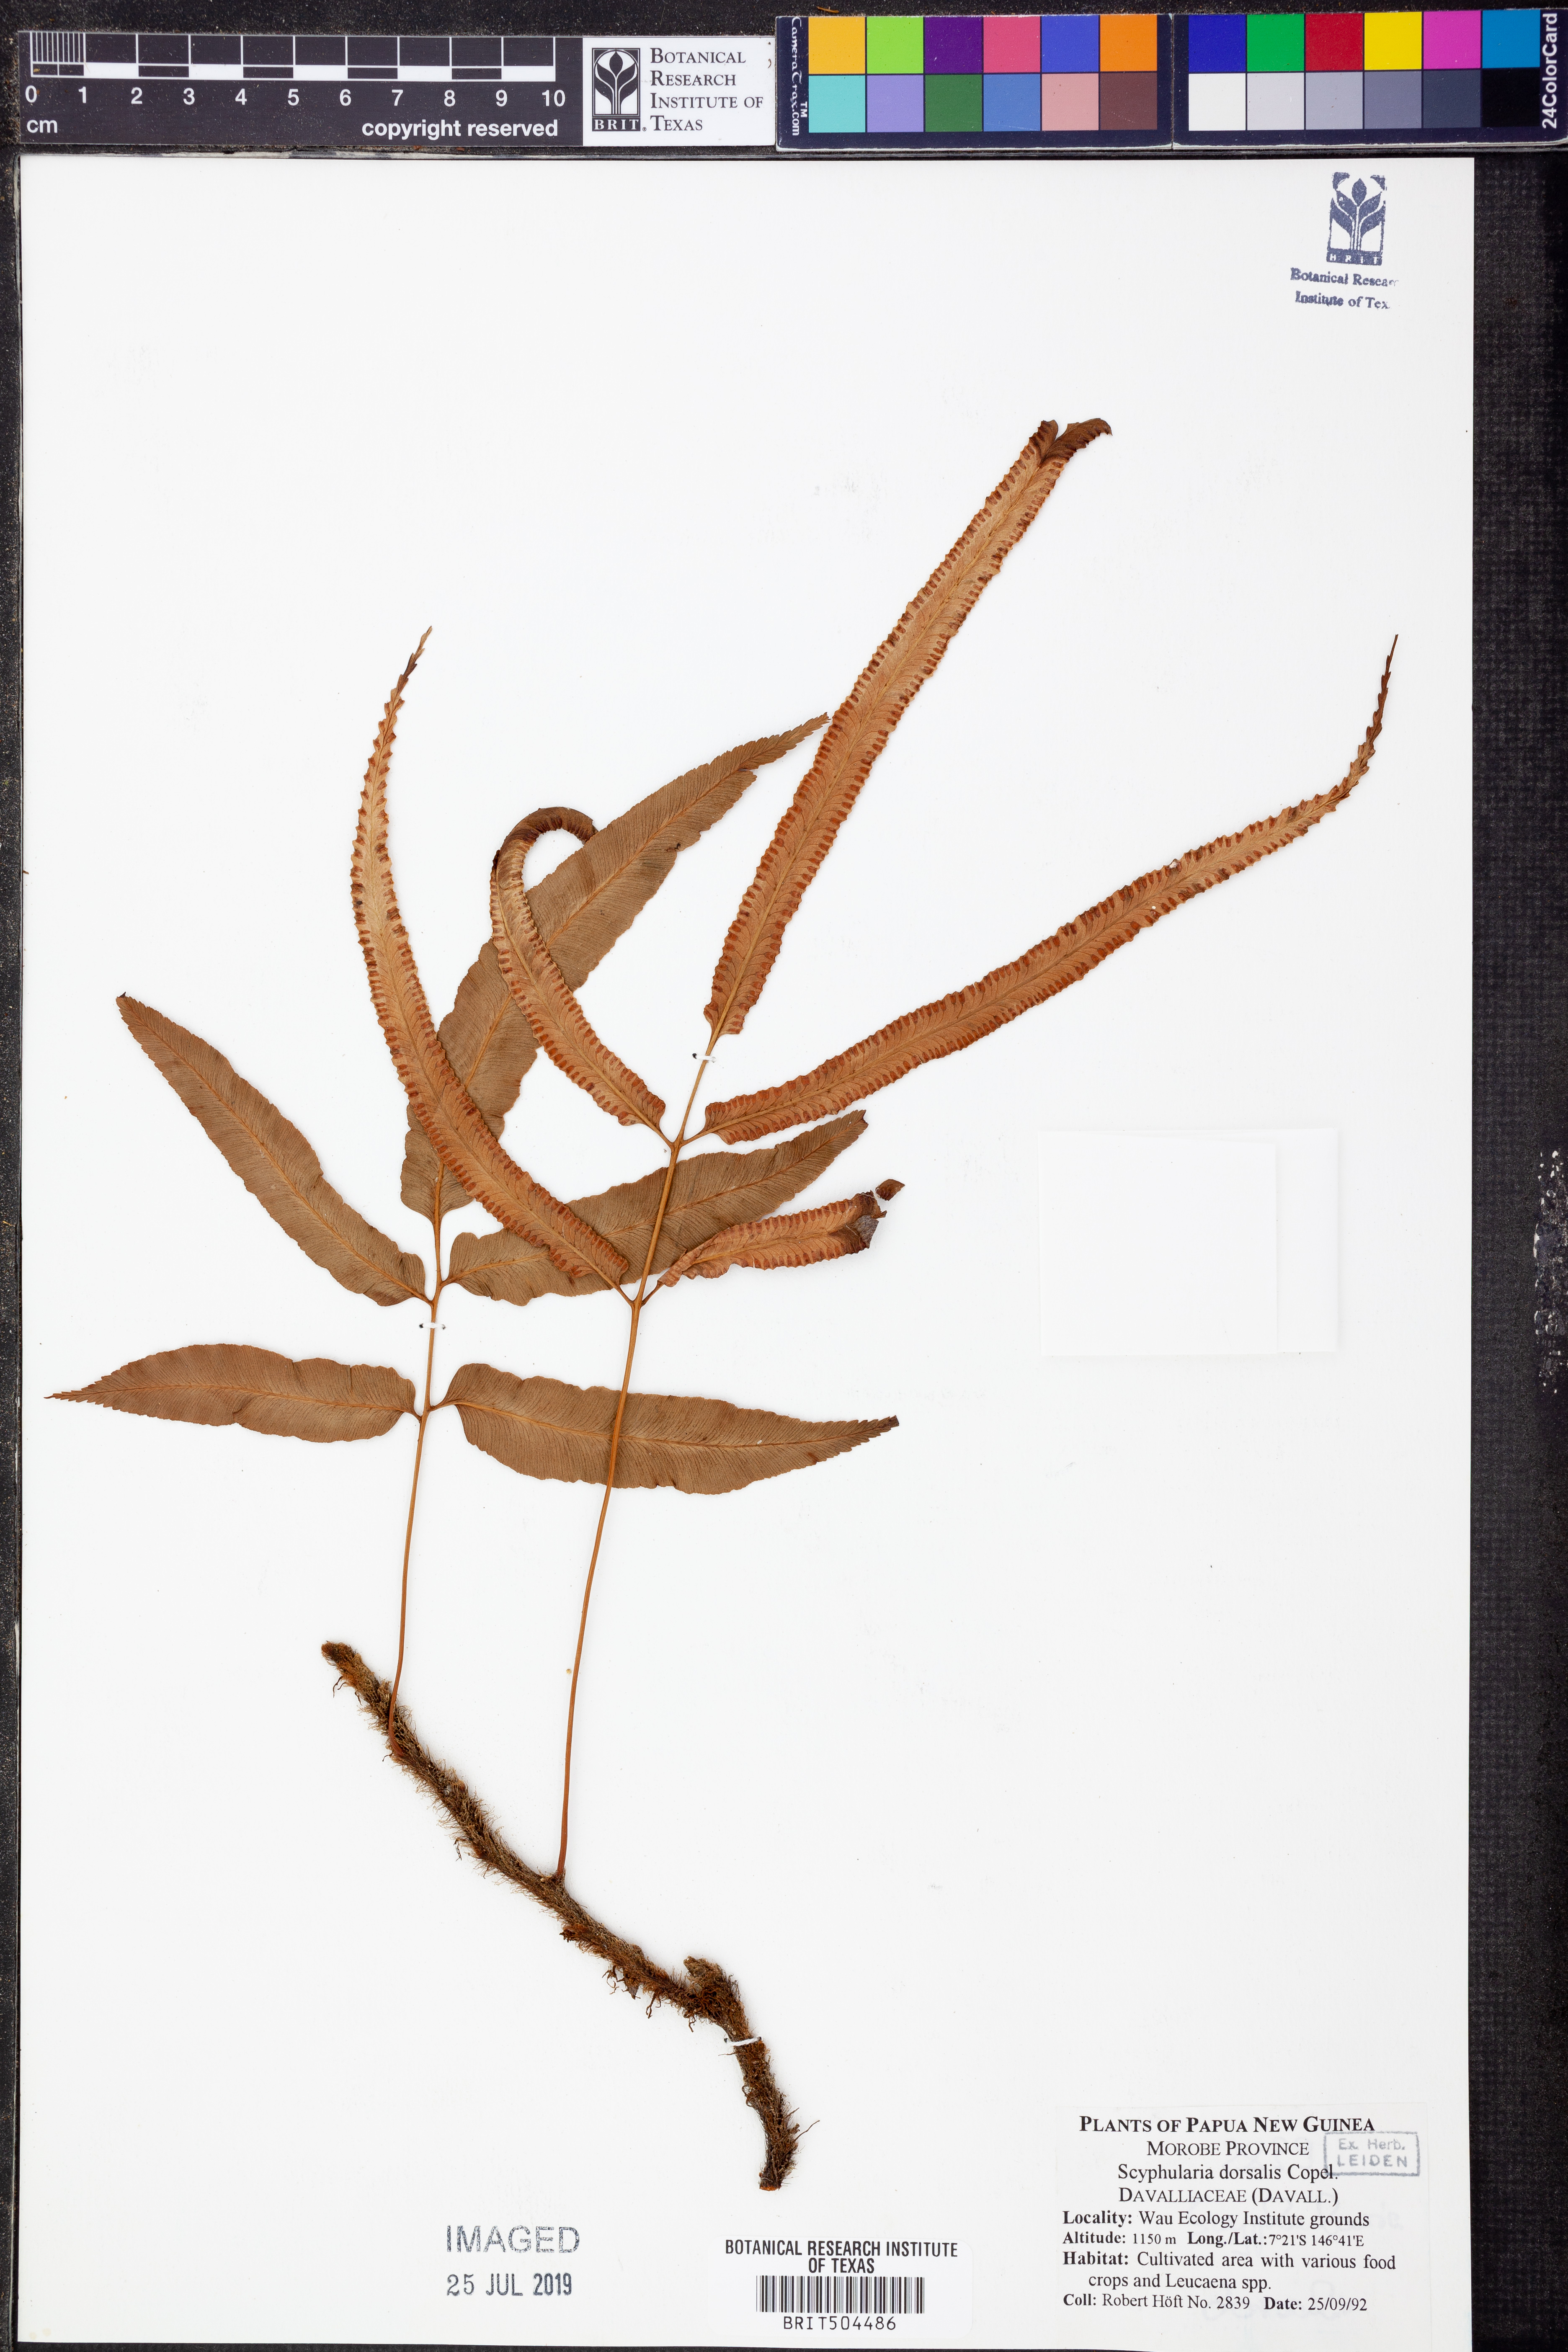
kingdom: Plantae
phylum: Tracheophyta
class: Polypodiopsida
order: Polypodiales
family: Davalliaceae
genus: Davallia
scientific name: Davallia pentaphylla
